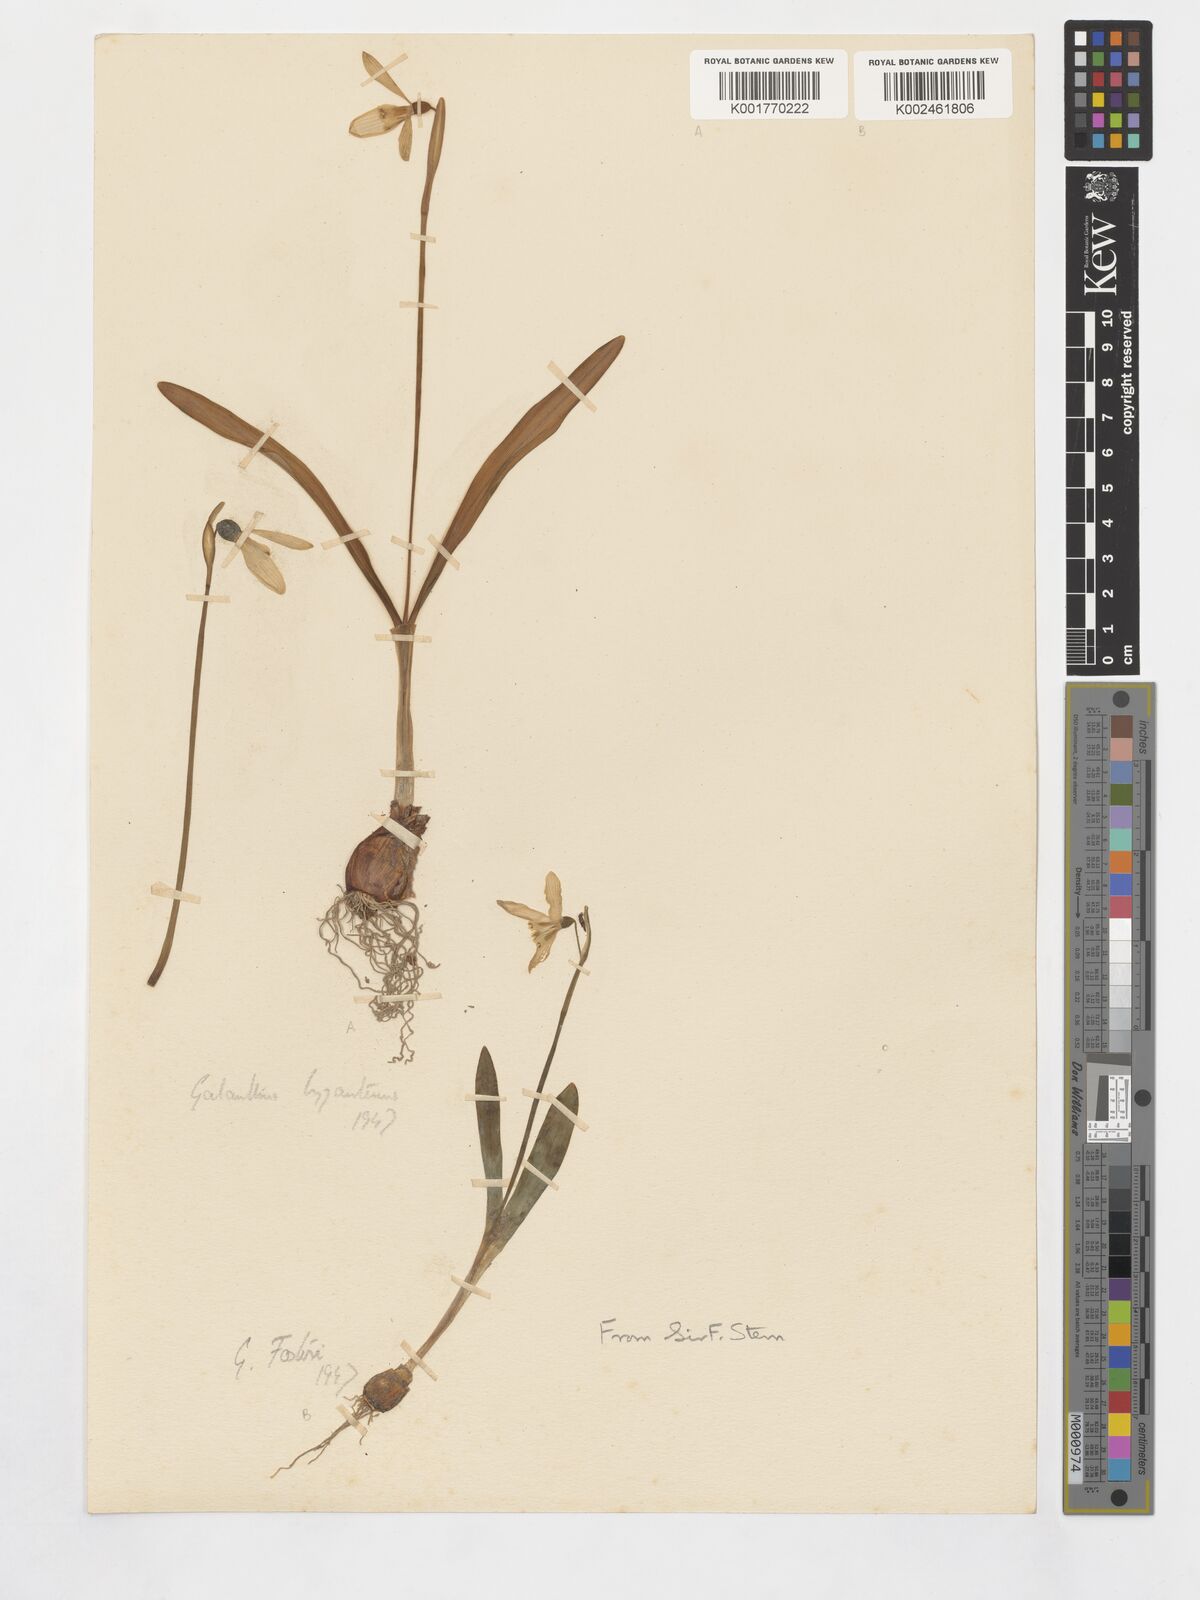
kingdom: Plantae
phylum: Tracheophyta
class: Liliopsida
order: Asparagales
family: Amaryllidaceae
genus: Galanthus
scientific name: Galanthus fosteri
